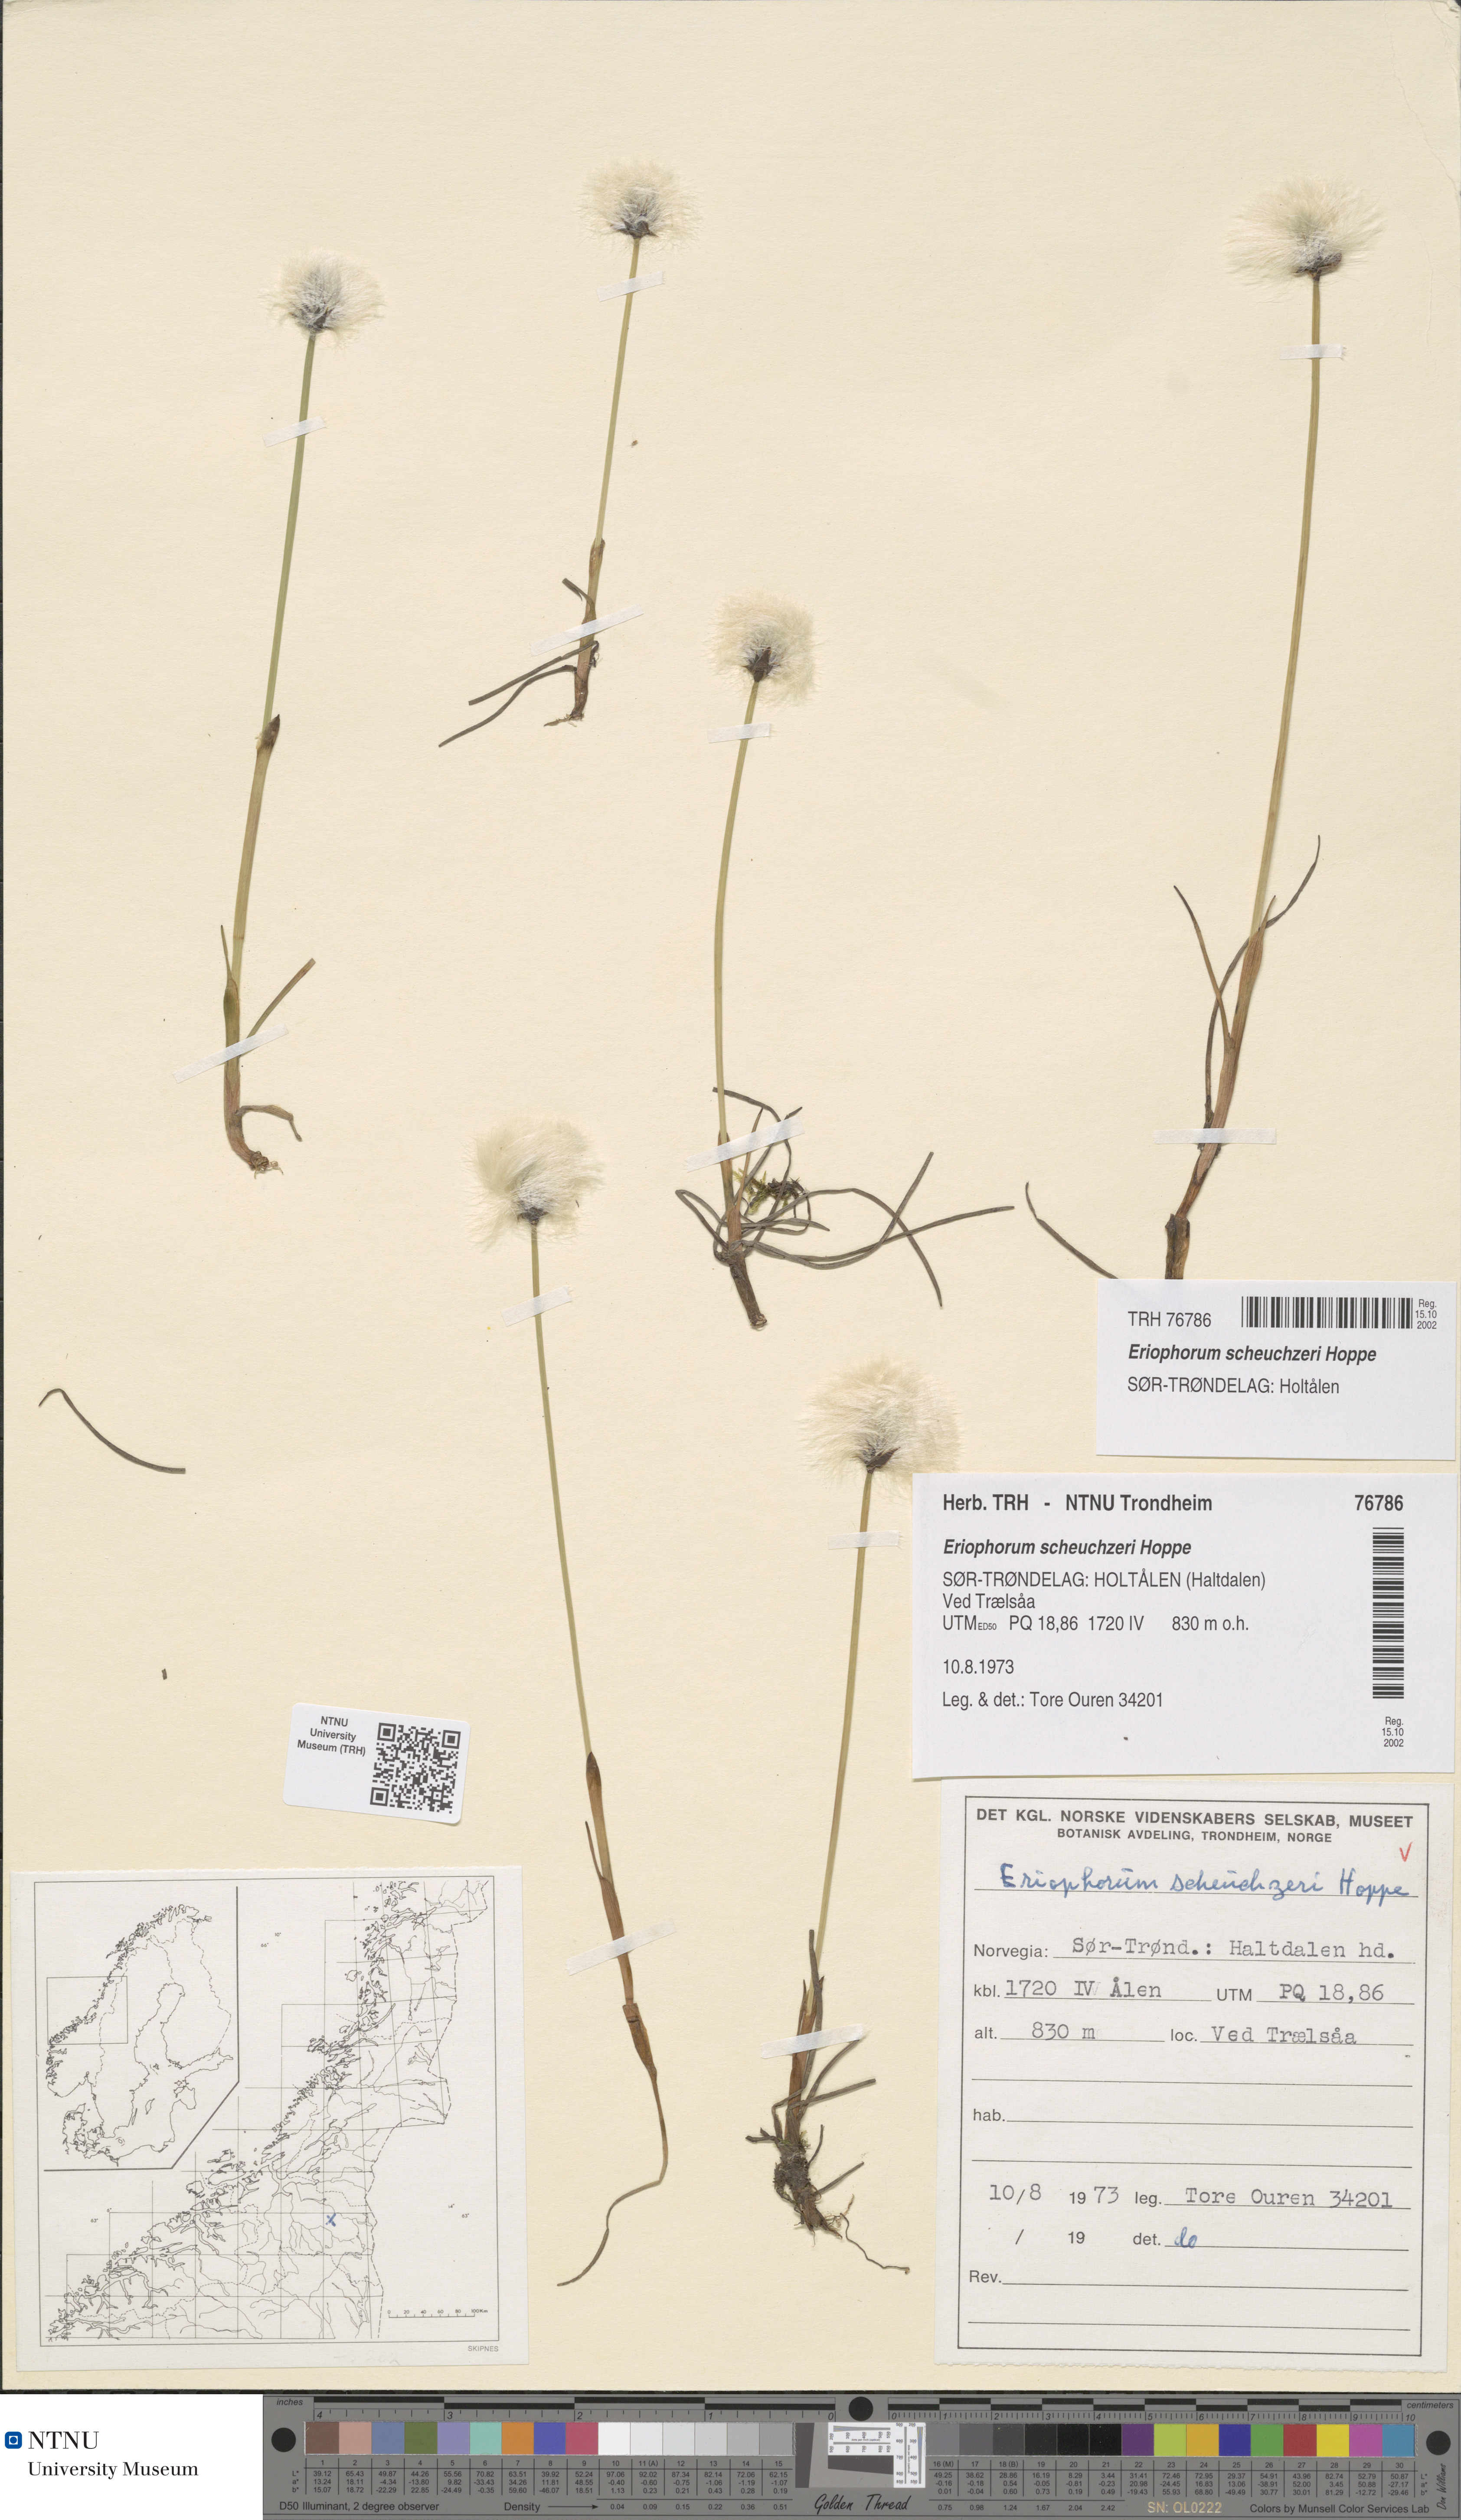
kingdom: Plantae
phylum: Tracheophyta
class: Liliopsida
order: Poales
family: Cyperaceae
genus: Eriophorum
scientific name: Eriophorum scheuchzeri
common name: Scheuchzer's cottongrass
